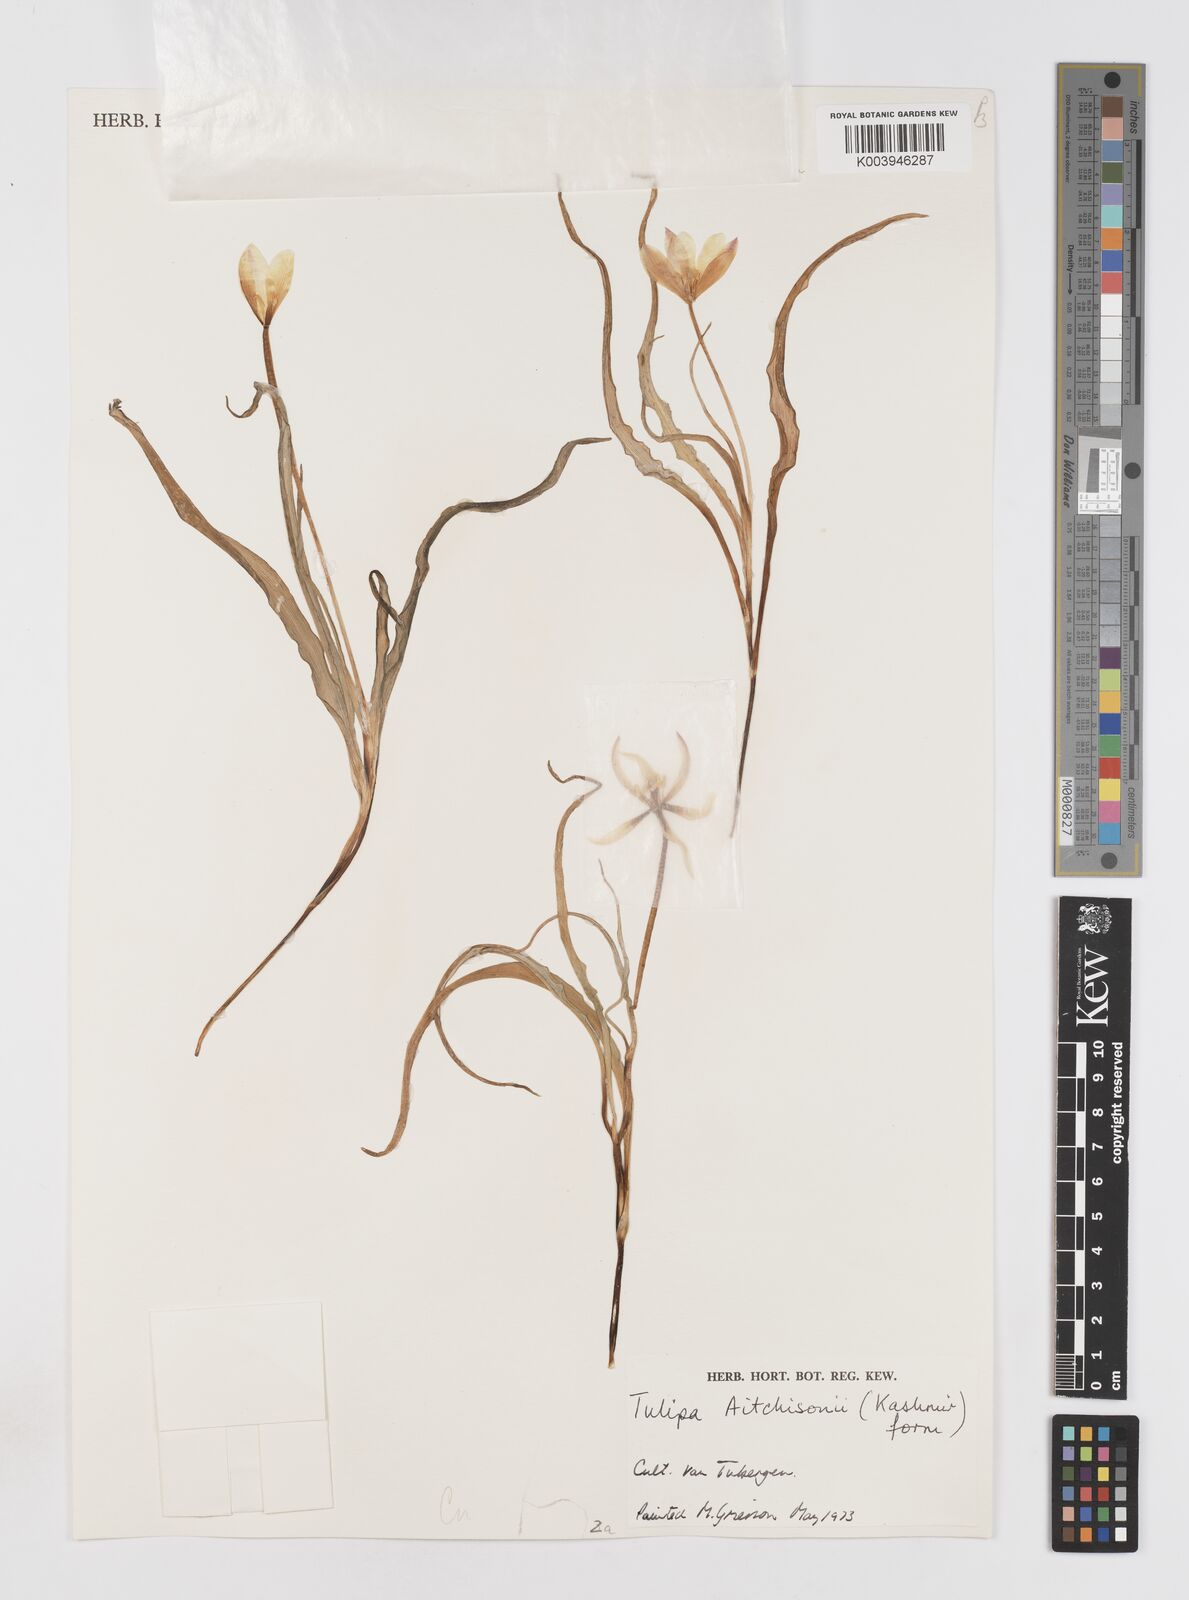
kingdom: Plantae
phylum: Tracheophyta
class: Liliopsida
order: Liliales
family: Liliaceae
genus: Tulipa
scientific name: Tulipa clusiana
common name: Lady tulip
